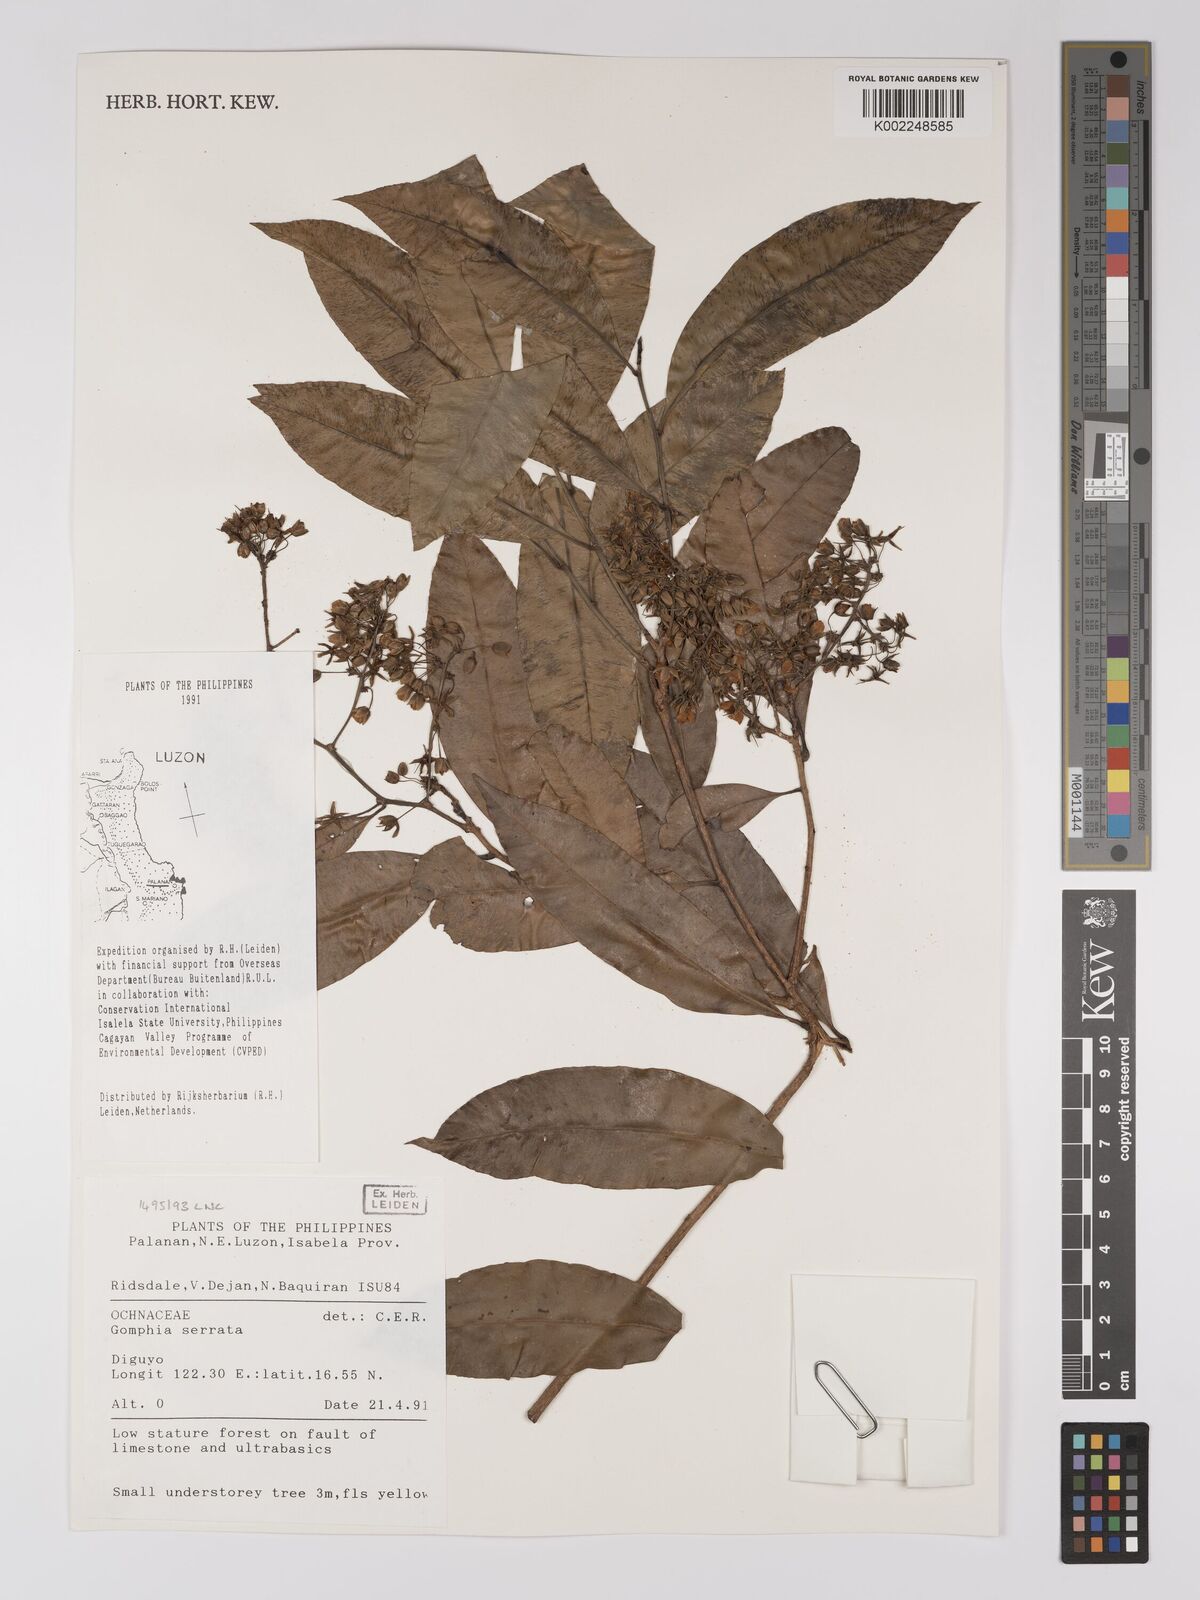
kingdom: Plantae
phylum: Tracheophyta
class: Magnoliopsida
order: Malpighiales
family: Ochnaceae
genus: Gomphia
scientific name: Gomphia serrata
